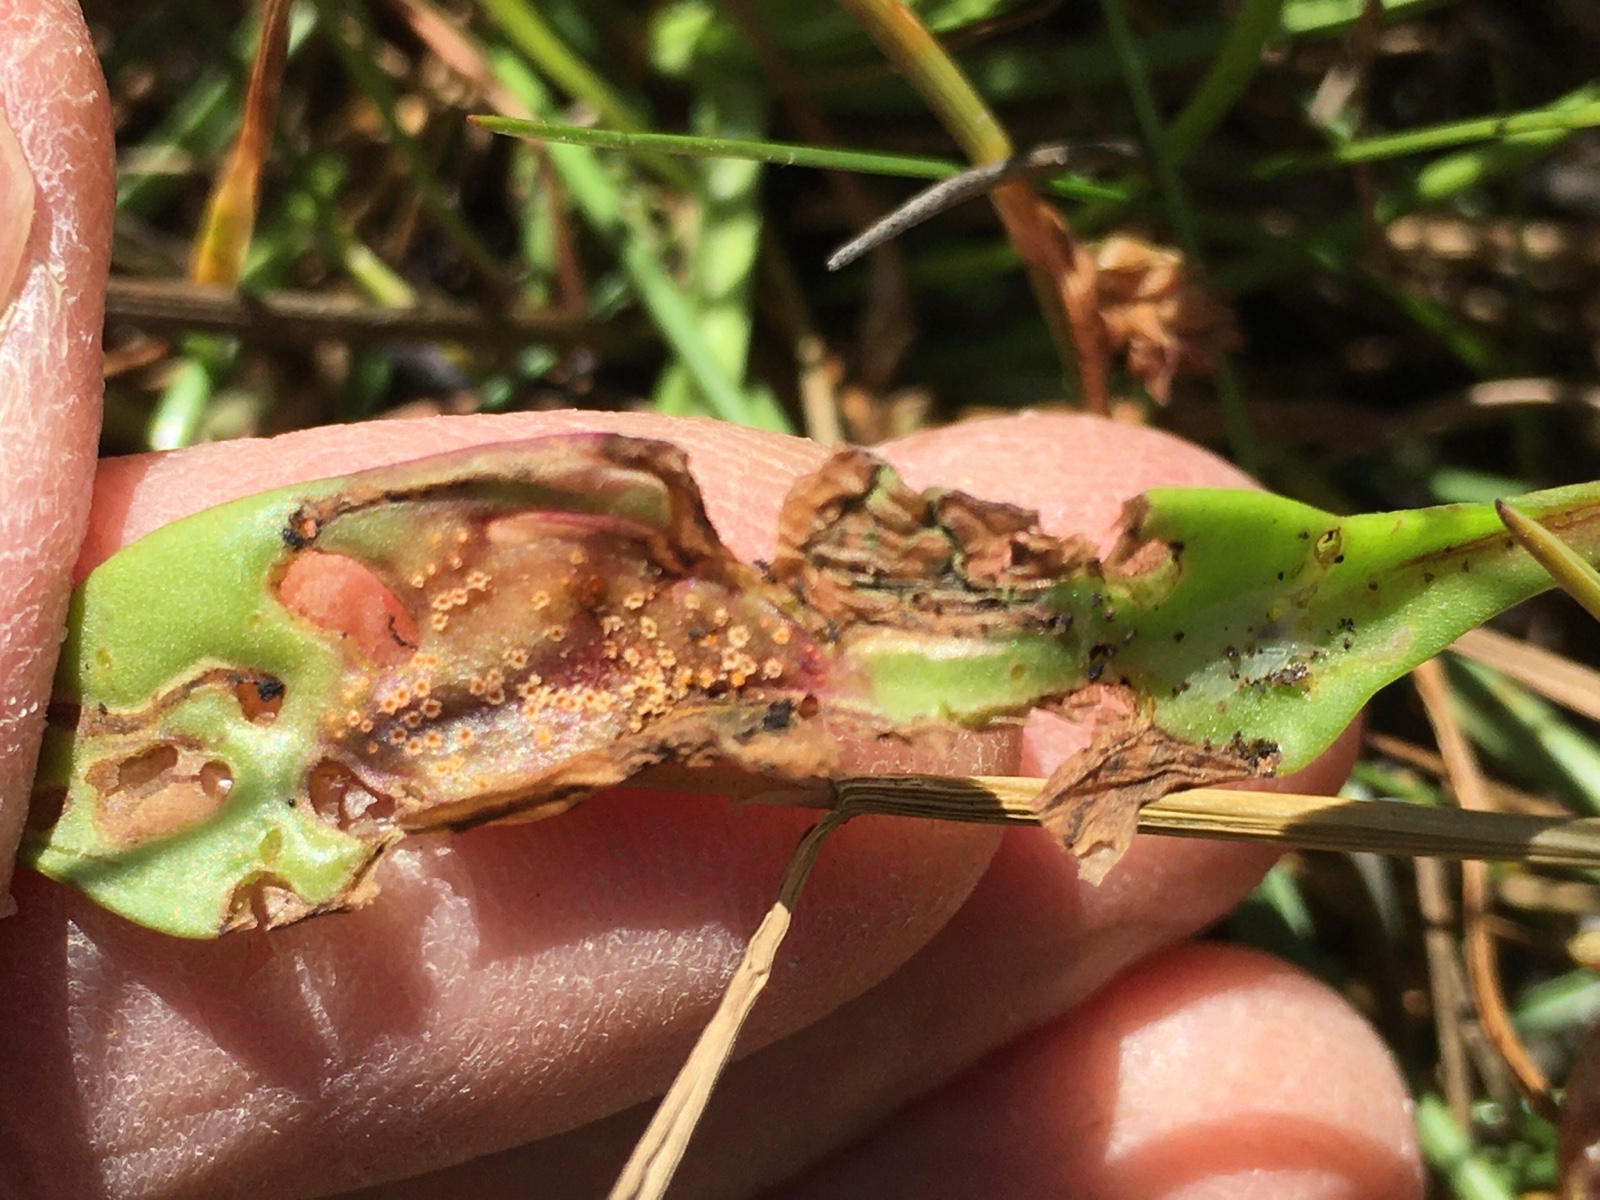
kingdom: Fungi
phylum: Basidiomycota
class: Pucciniomycetes
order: Pucciniales
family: Pucciniaceae
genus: Uromyces
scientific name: Uromyces limonii
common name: hindebæger-encellerust
